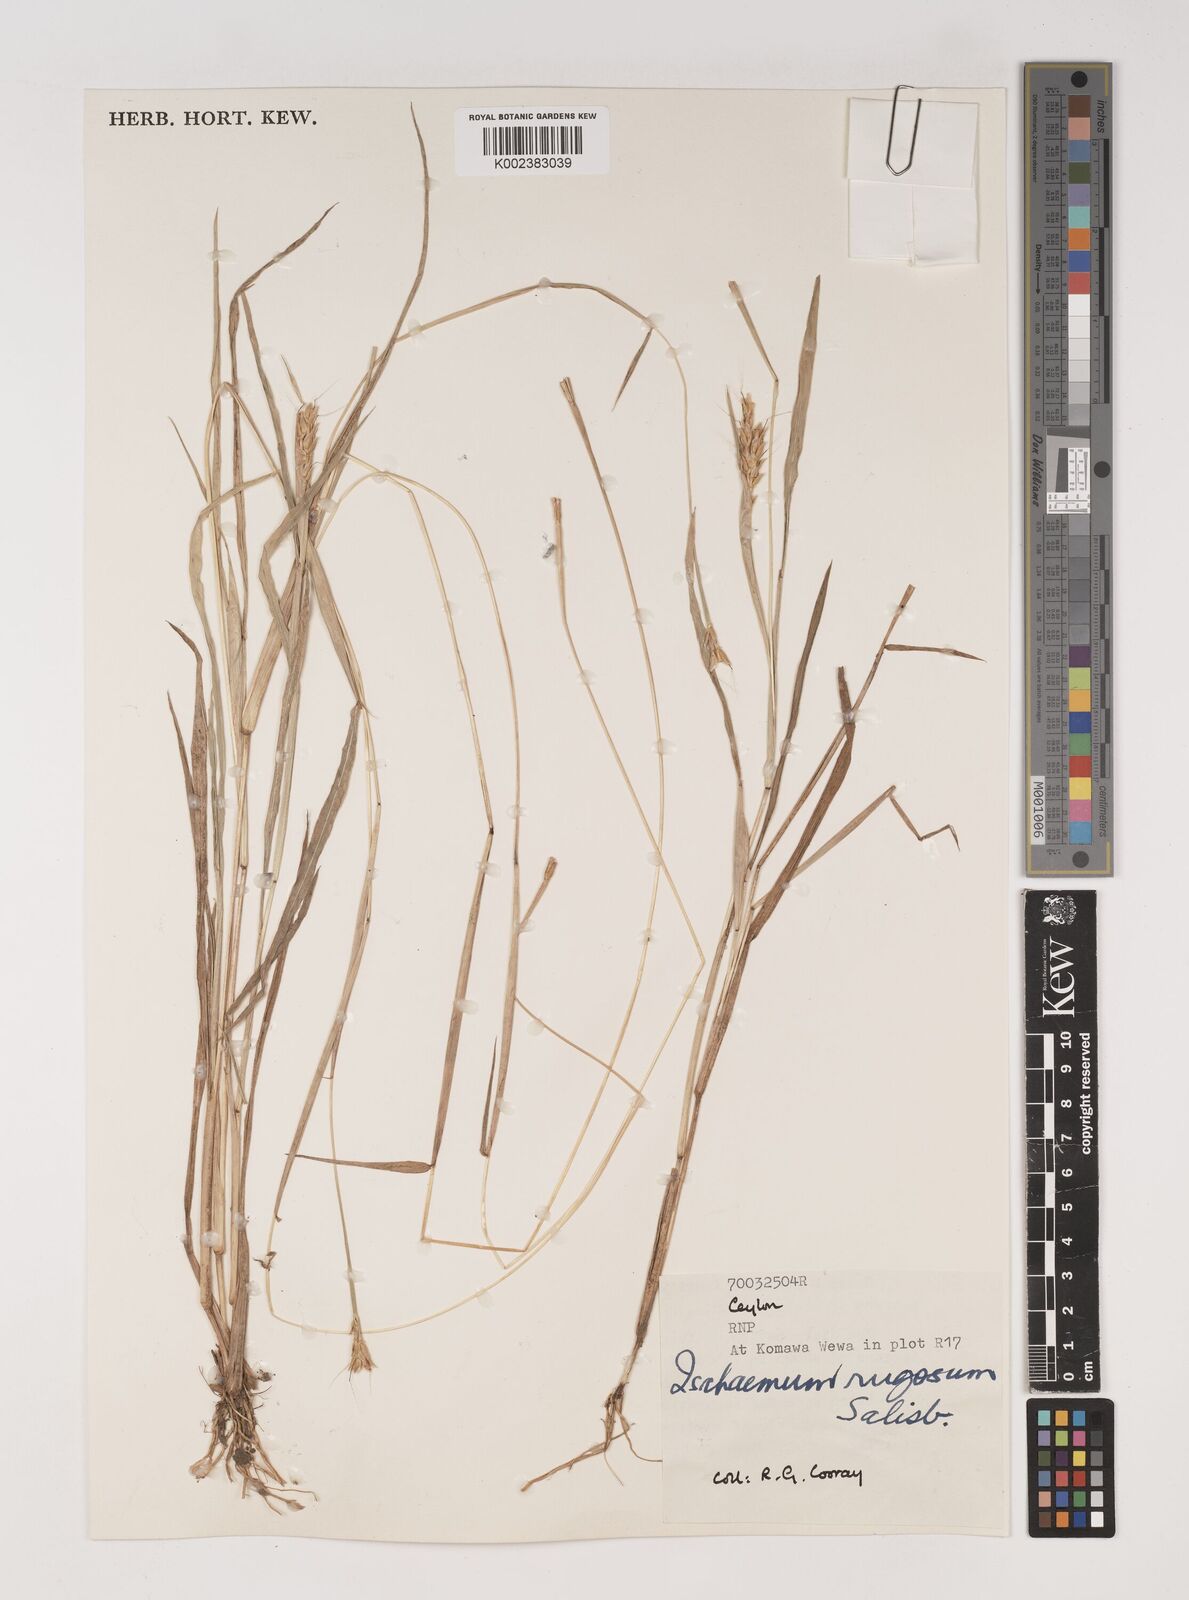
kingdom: Plantae
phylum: Tracheophyta
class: Liliopsida
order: Poales
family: Poaceae
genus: Ischaemum
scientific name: Ischaemum rugosum
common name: Saramatta grass
